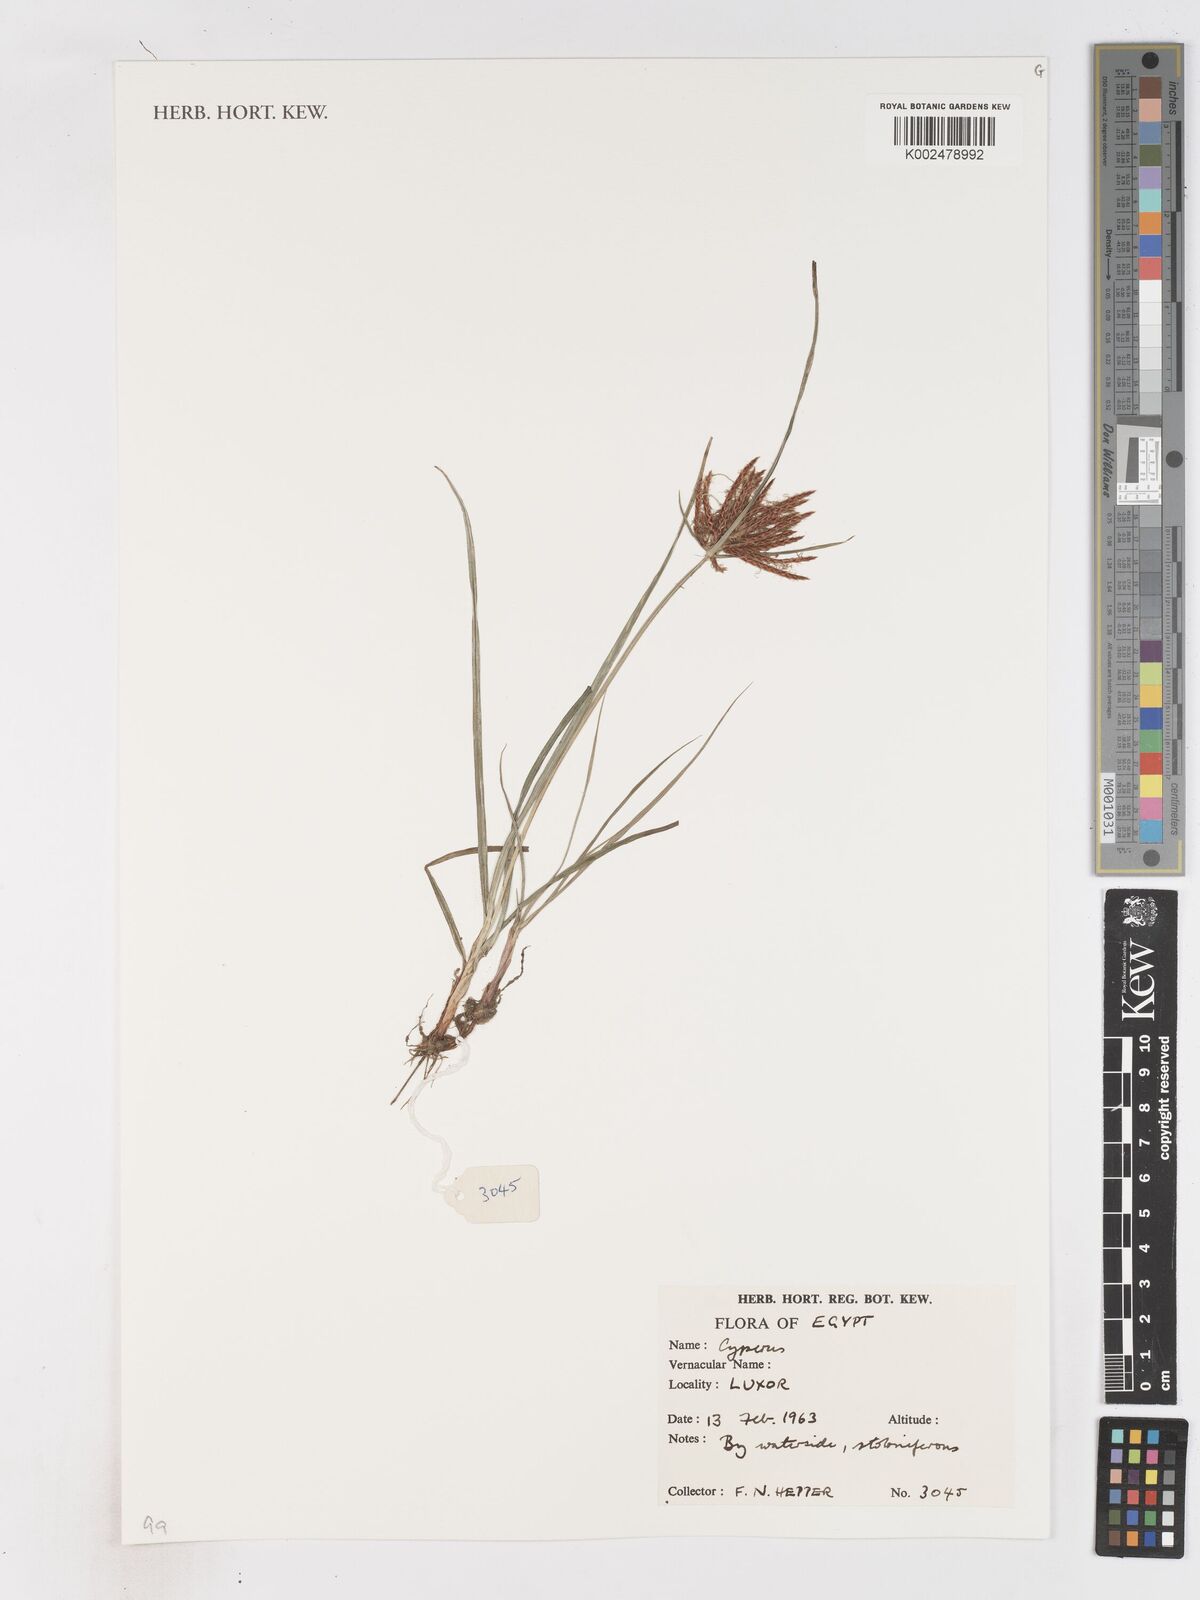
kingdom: Plantae
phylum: Tracheophyta
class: Liliopsida
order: Poales
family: Cyperaceae
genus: Cyperus
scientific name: Cyperus
